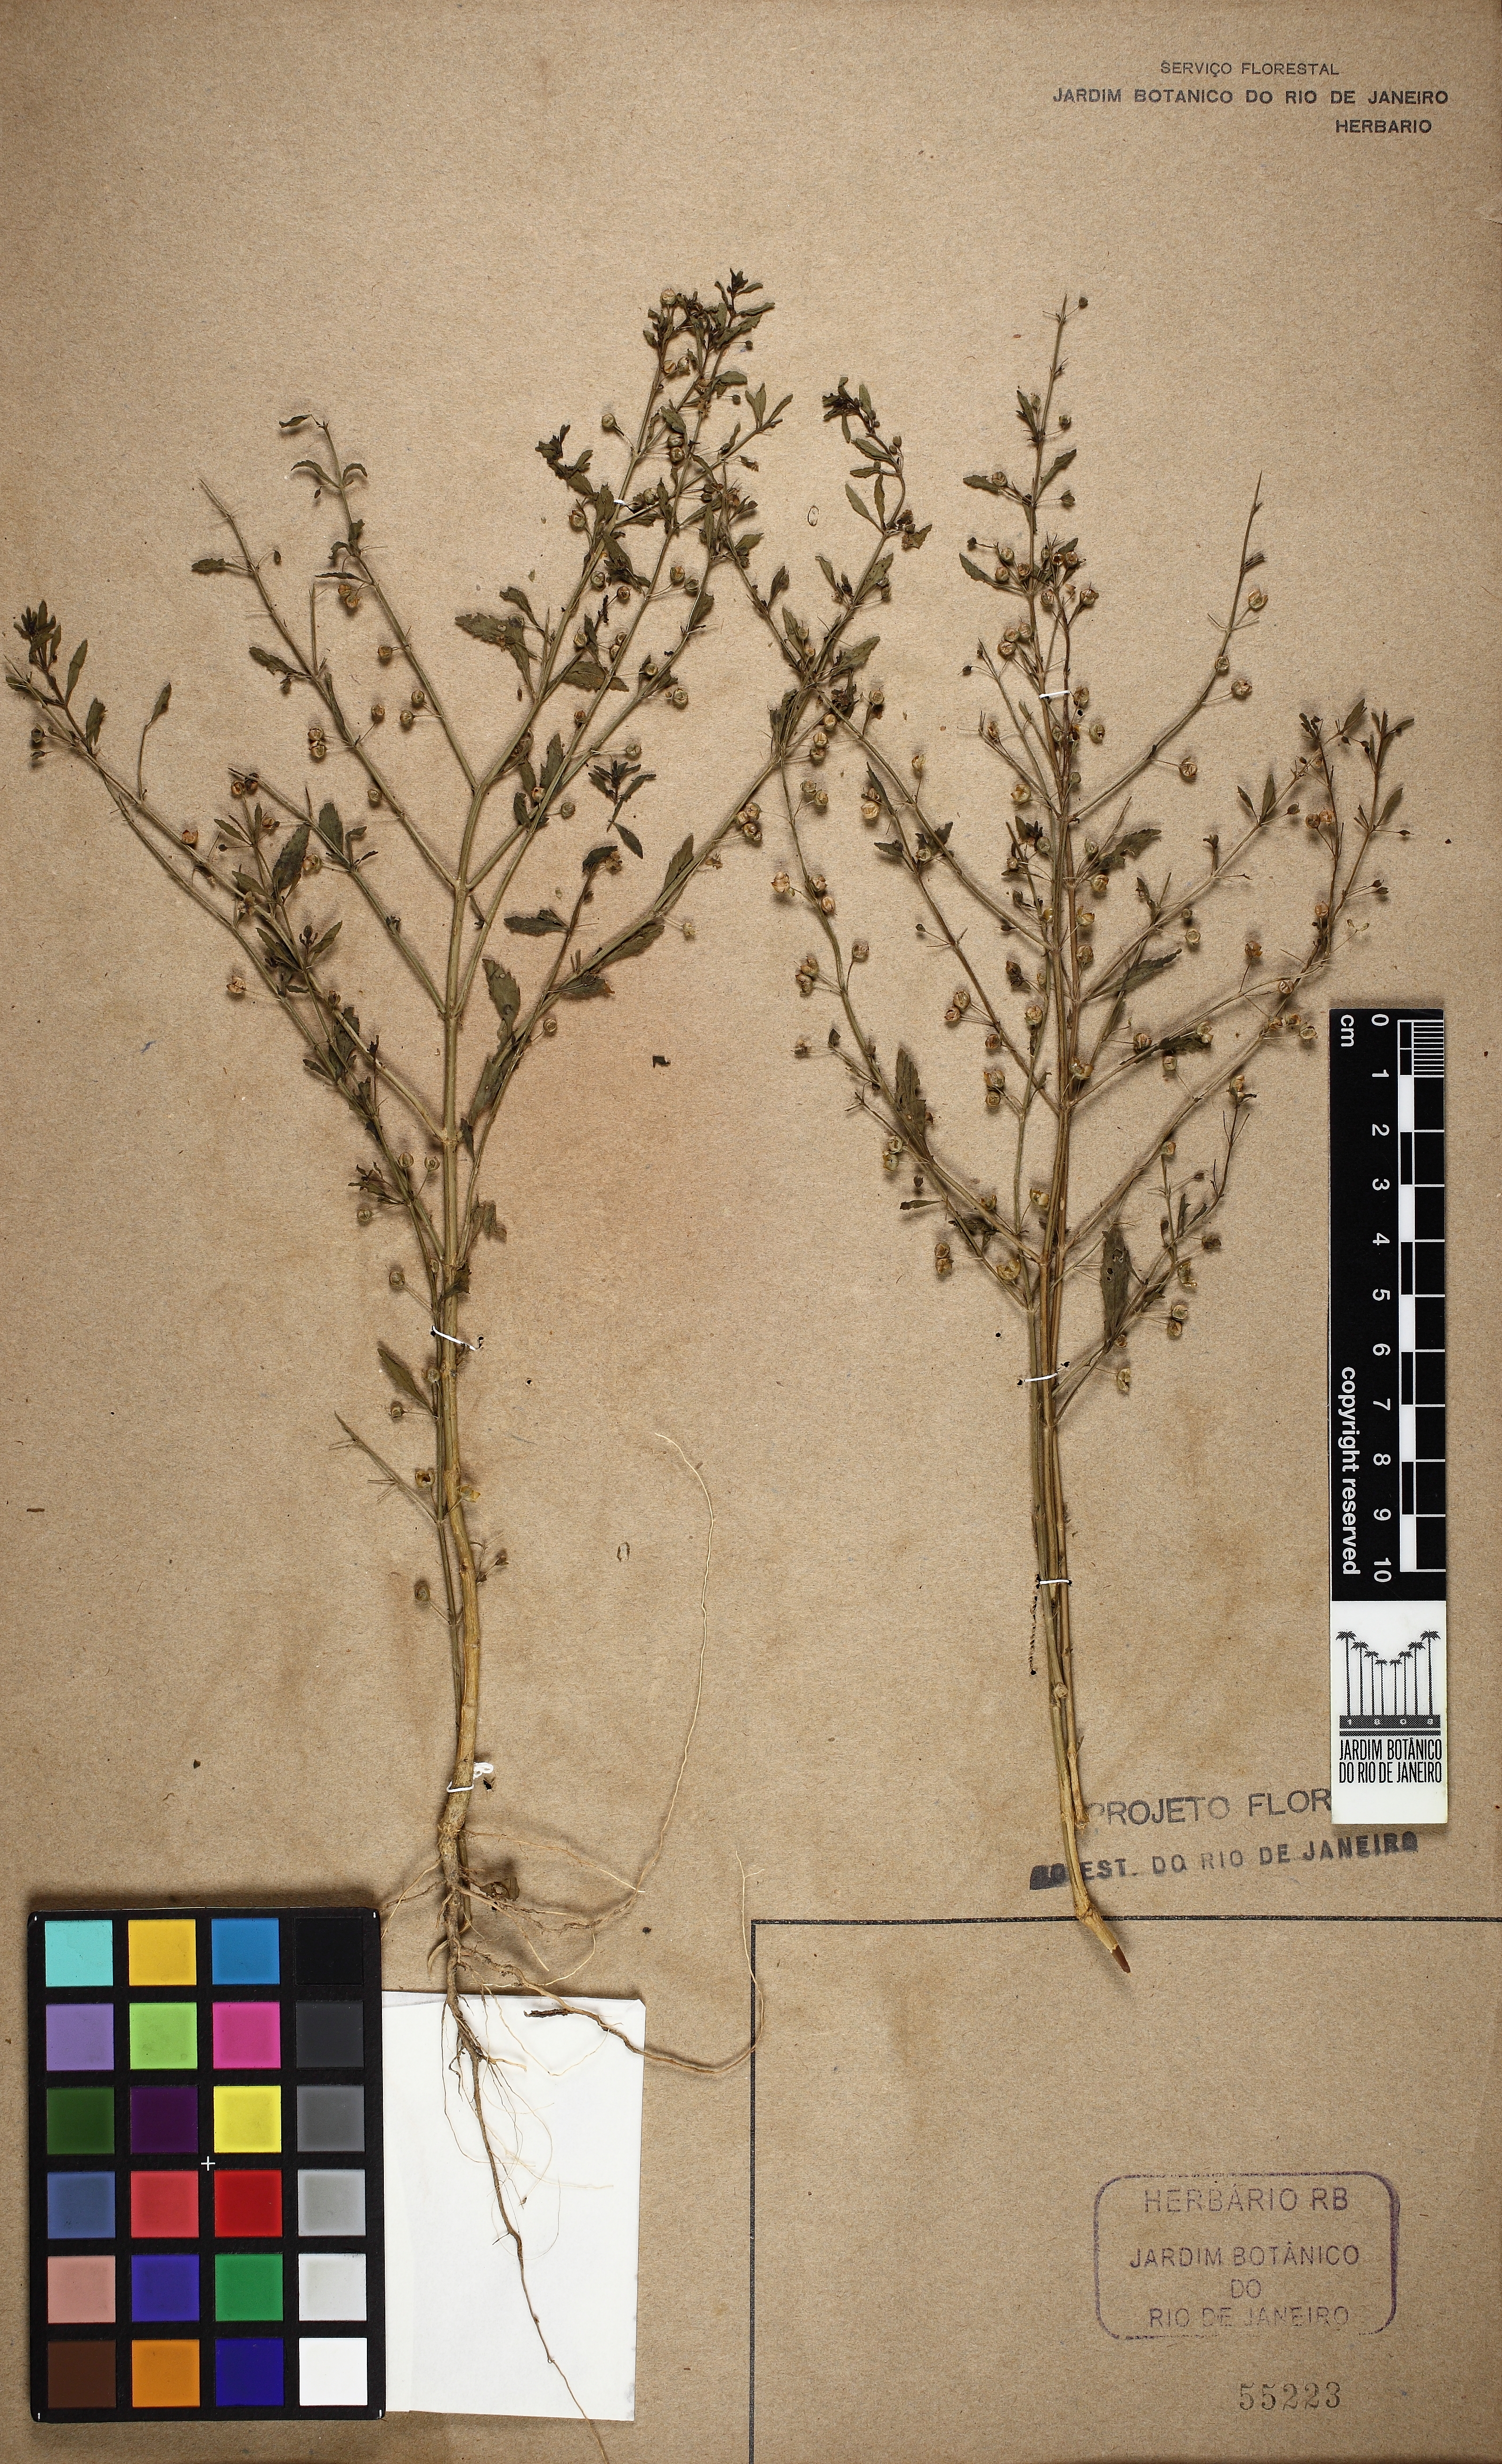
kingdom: Plantae
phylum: Tracheophyta
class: Magnoliopsida
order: Lamiales
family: Plantaginaceae
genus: Scoparia
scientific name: Scoparia dulcis
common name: Scoparia-weed
